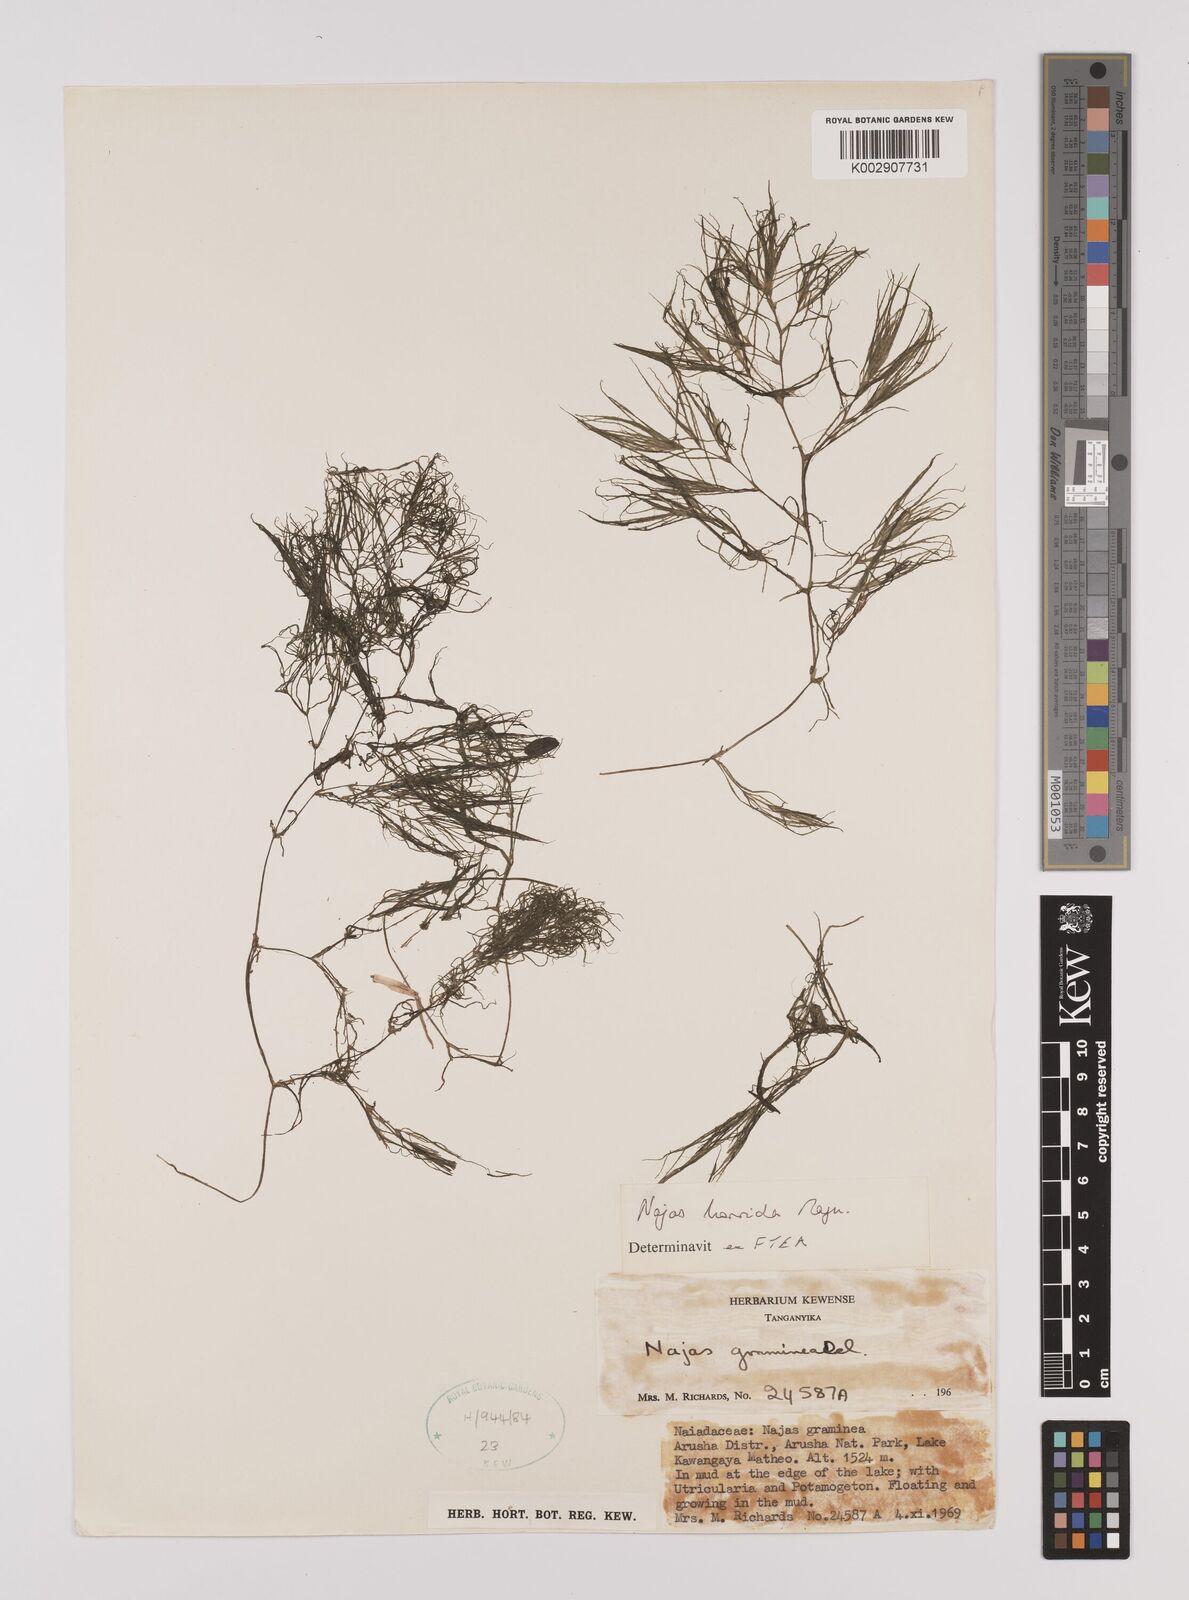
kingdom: Plantae
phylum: Tracheophyta
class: Liliopsida
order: Alismatales
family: Hydrocharitaceae
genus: Najas
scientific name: Najas horrida
